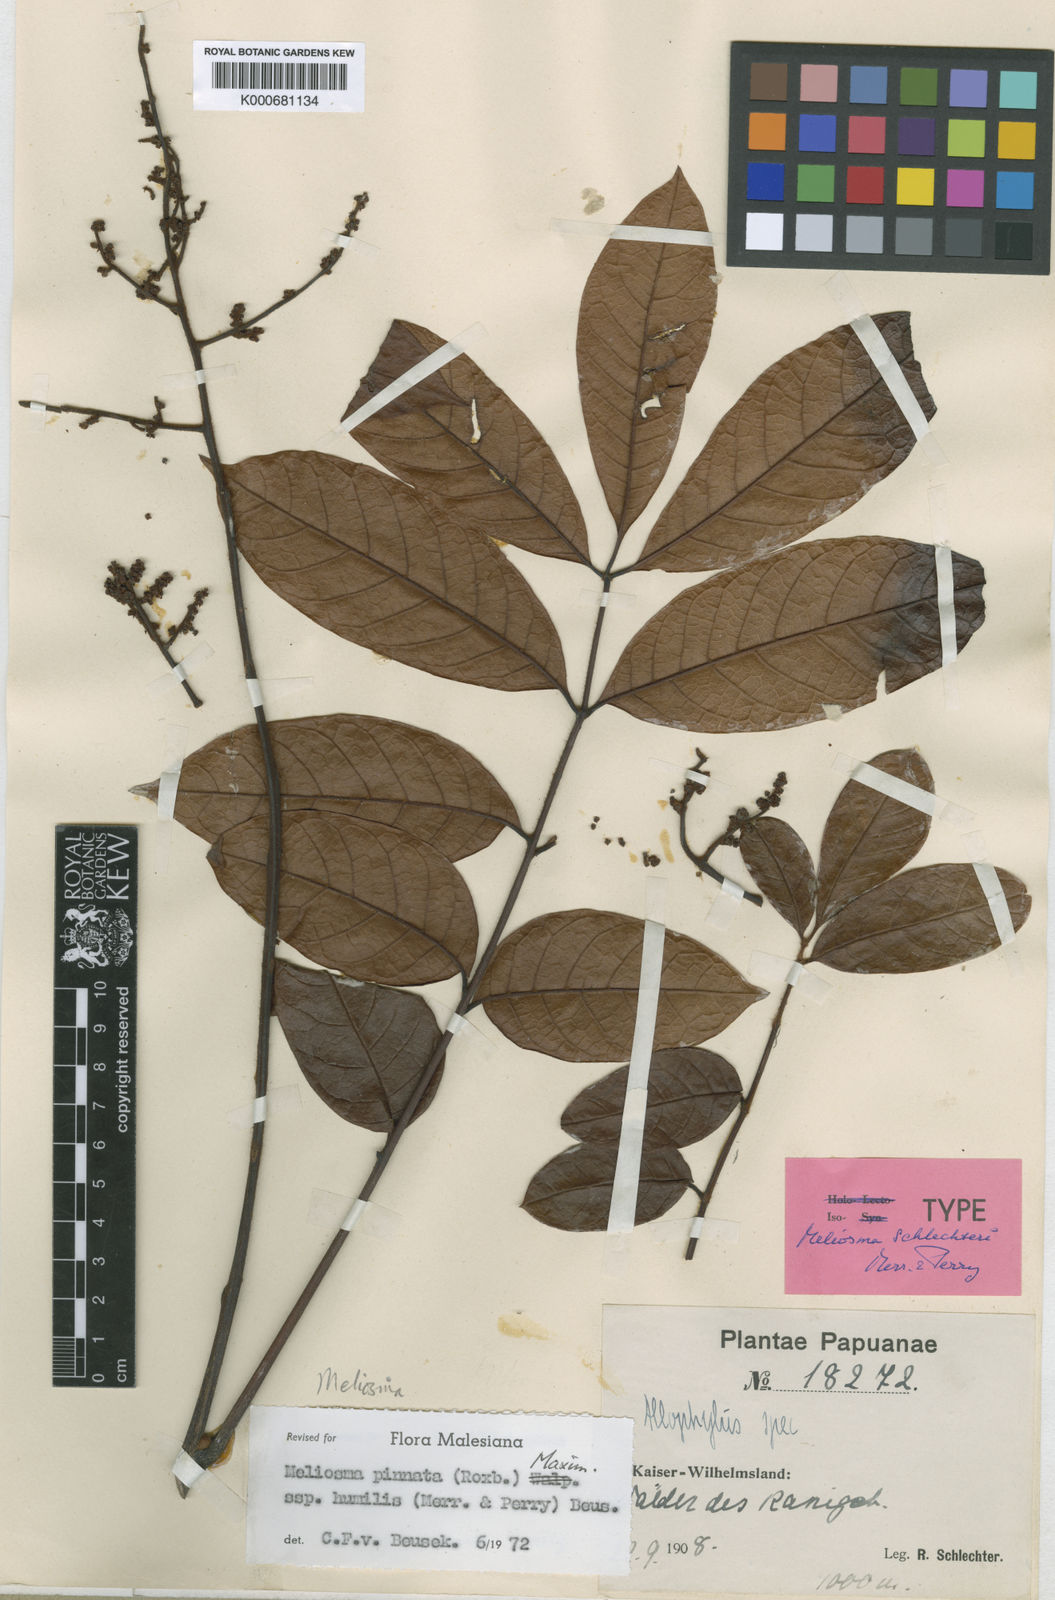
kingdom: Plantae
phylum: Tracheophyta
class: Magnoliopsida
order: Proteales
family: Sabiaceae
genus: Meliosma
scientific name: Meliosma pinnata
